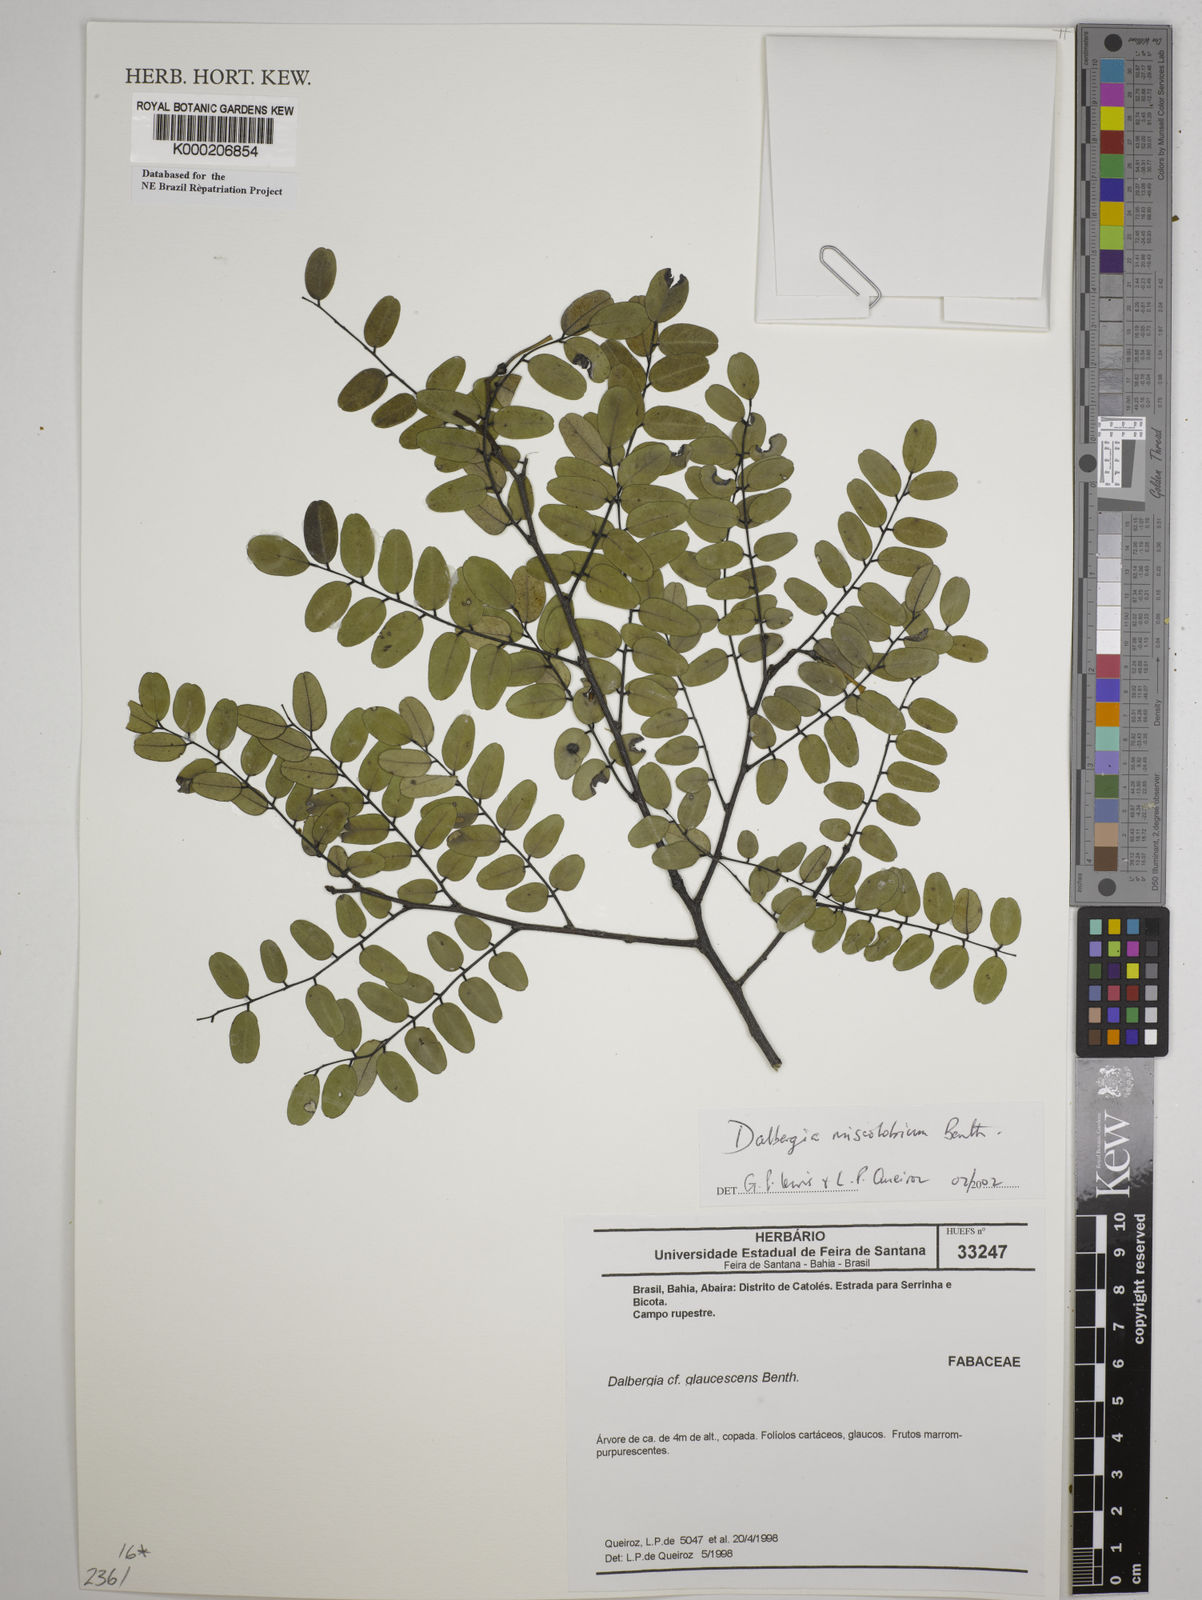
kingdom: Plantae
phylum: Tracheophyta
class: Magnoliopsida
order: Fabales
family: Fabaceae
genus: Dalbergia
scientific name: Dalbergia miscolobium
